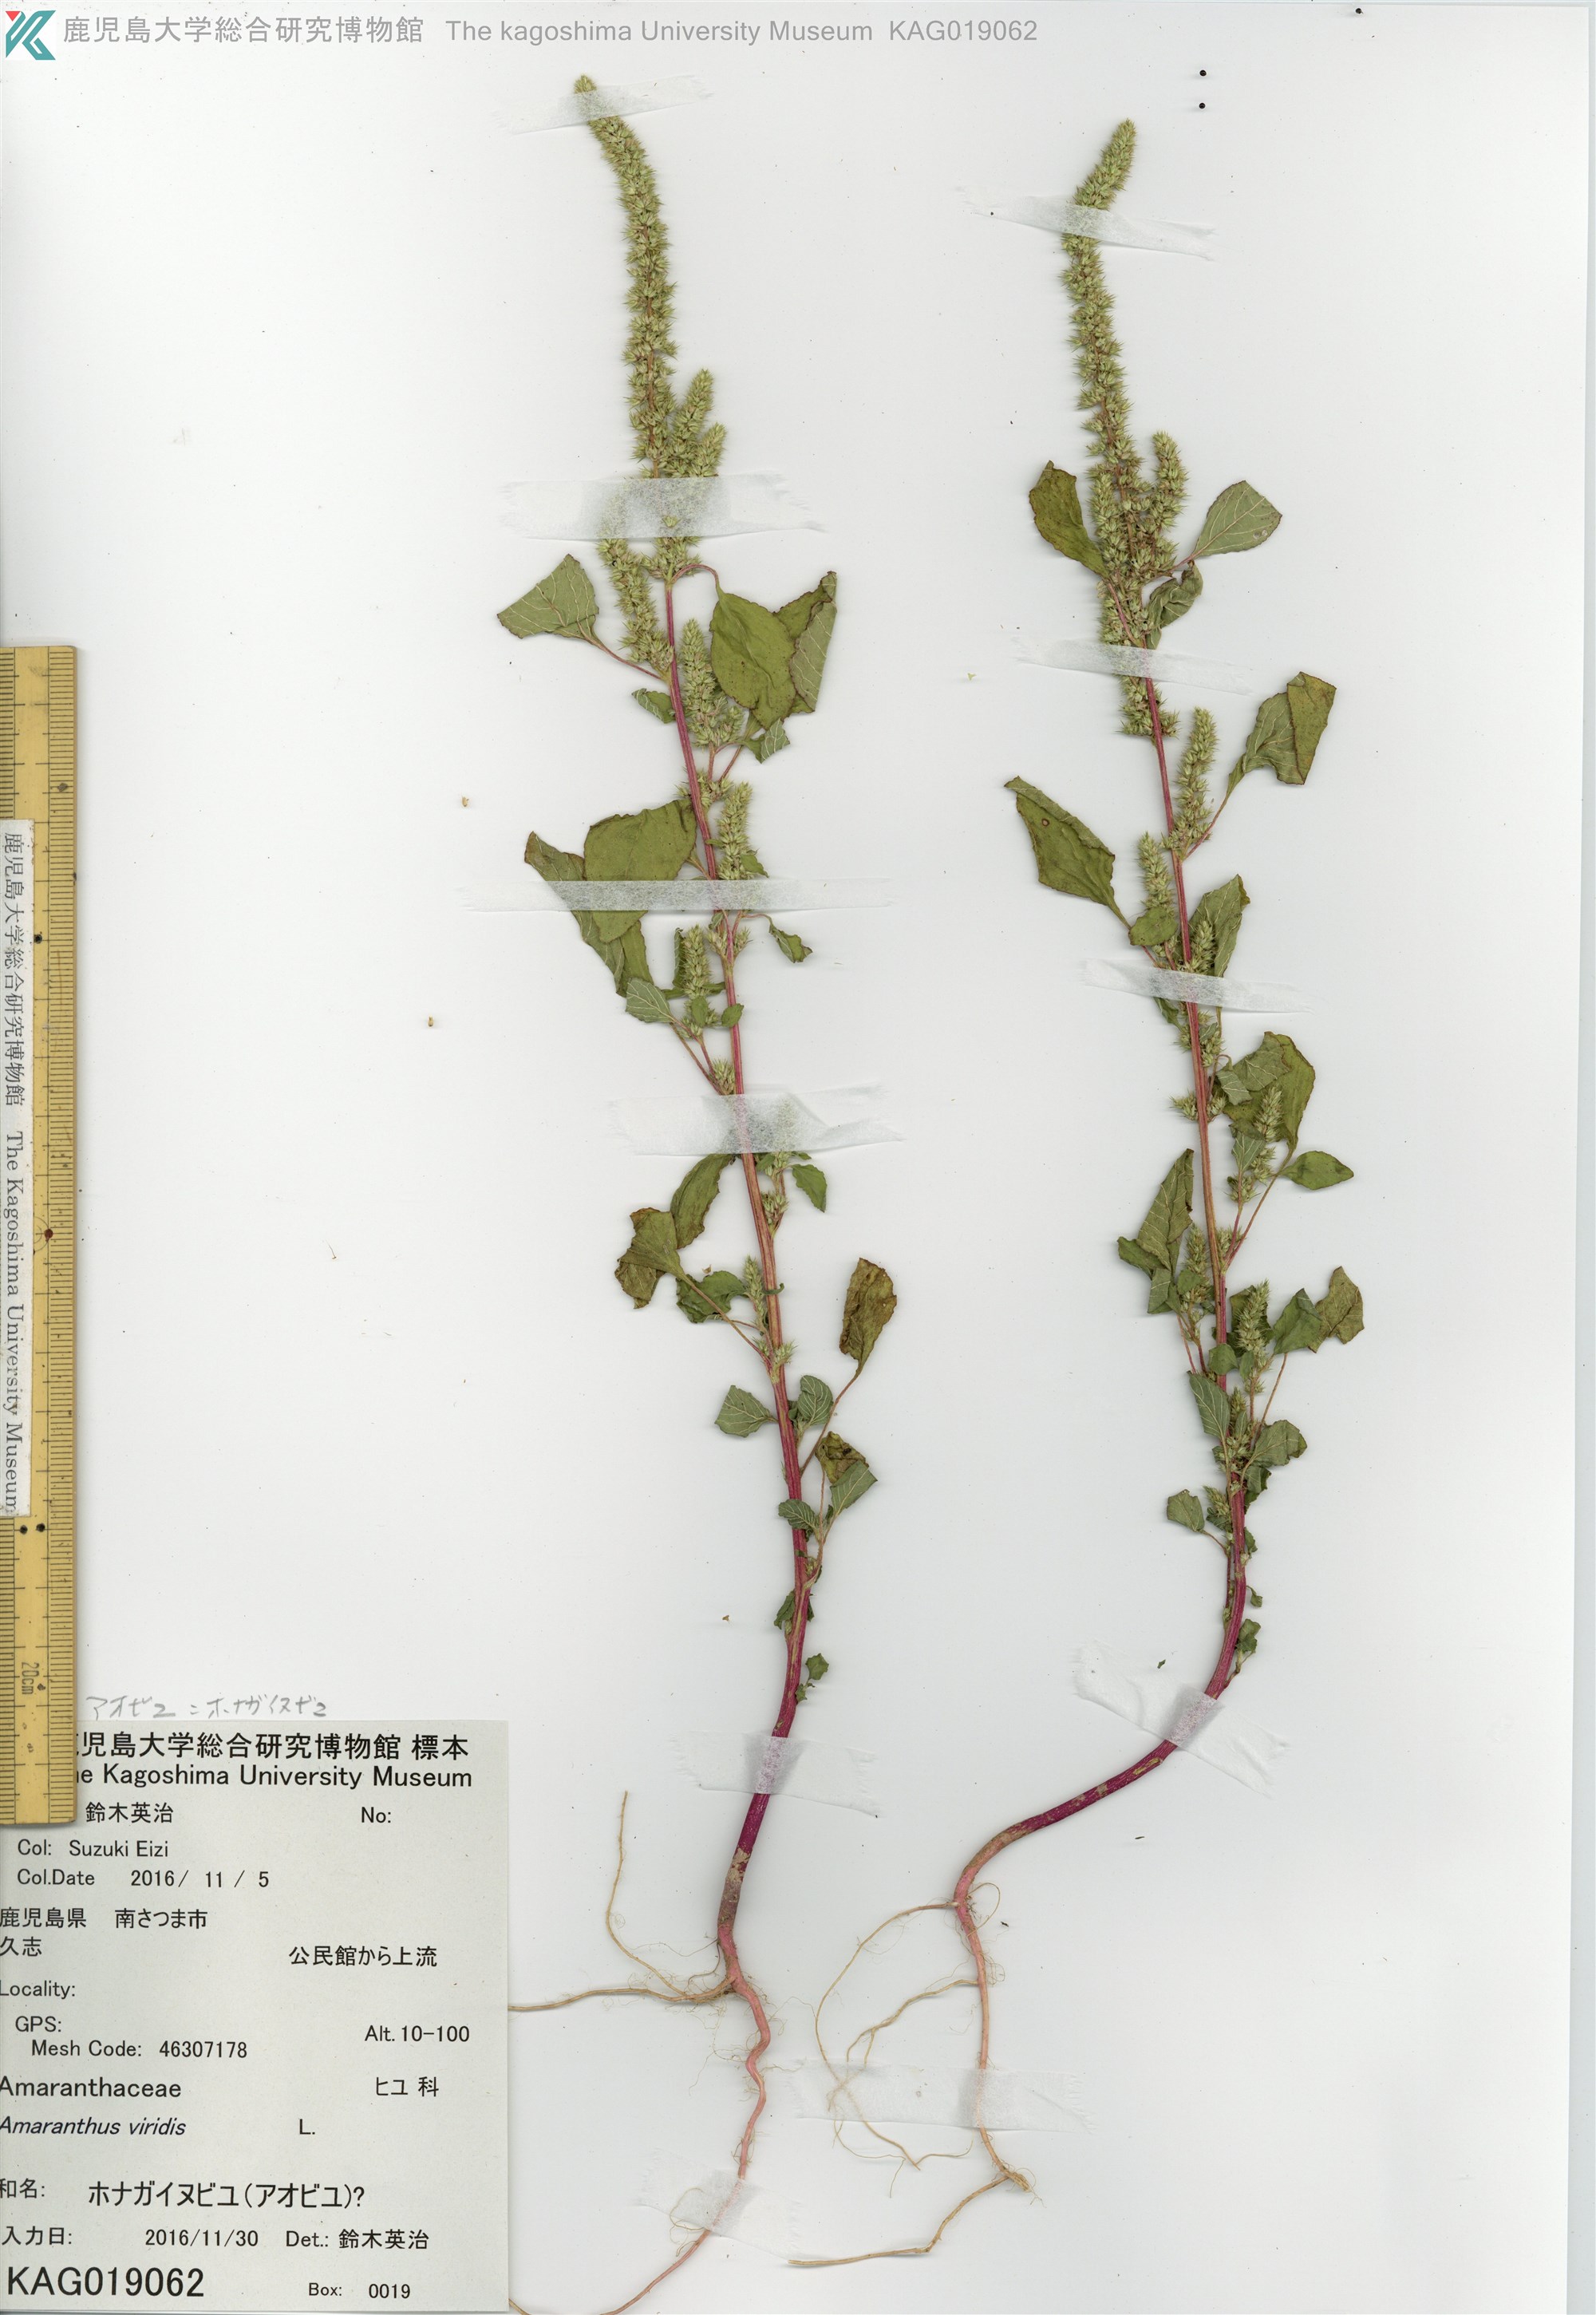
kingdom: Plantae
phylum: Tracheophyta
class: Magnoliopsida
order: Caryophyllales
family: Amaranthaceae
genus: Amaranthus
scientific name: Amaranthus viridis
